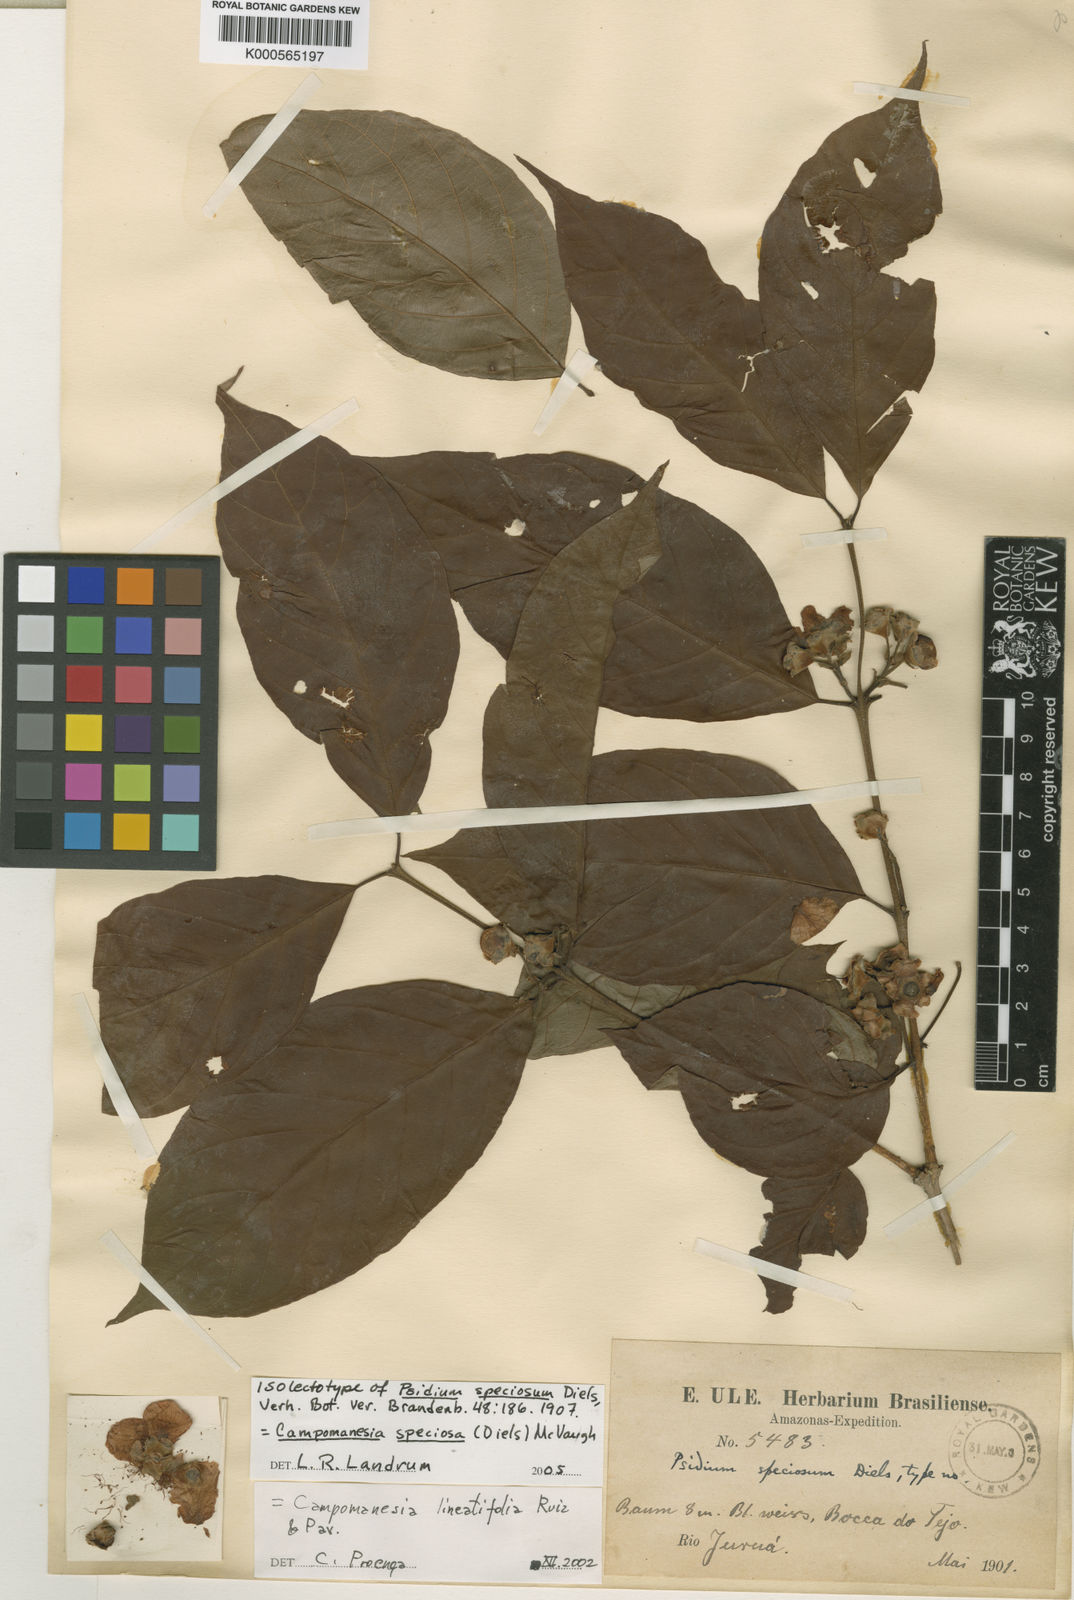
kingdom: Plantae
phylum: Tracheophyta
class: Magnoliopsida
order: Myrtales
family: Myrtaceae
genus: Campomanesia
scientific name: Campomanesia speciosa
